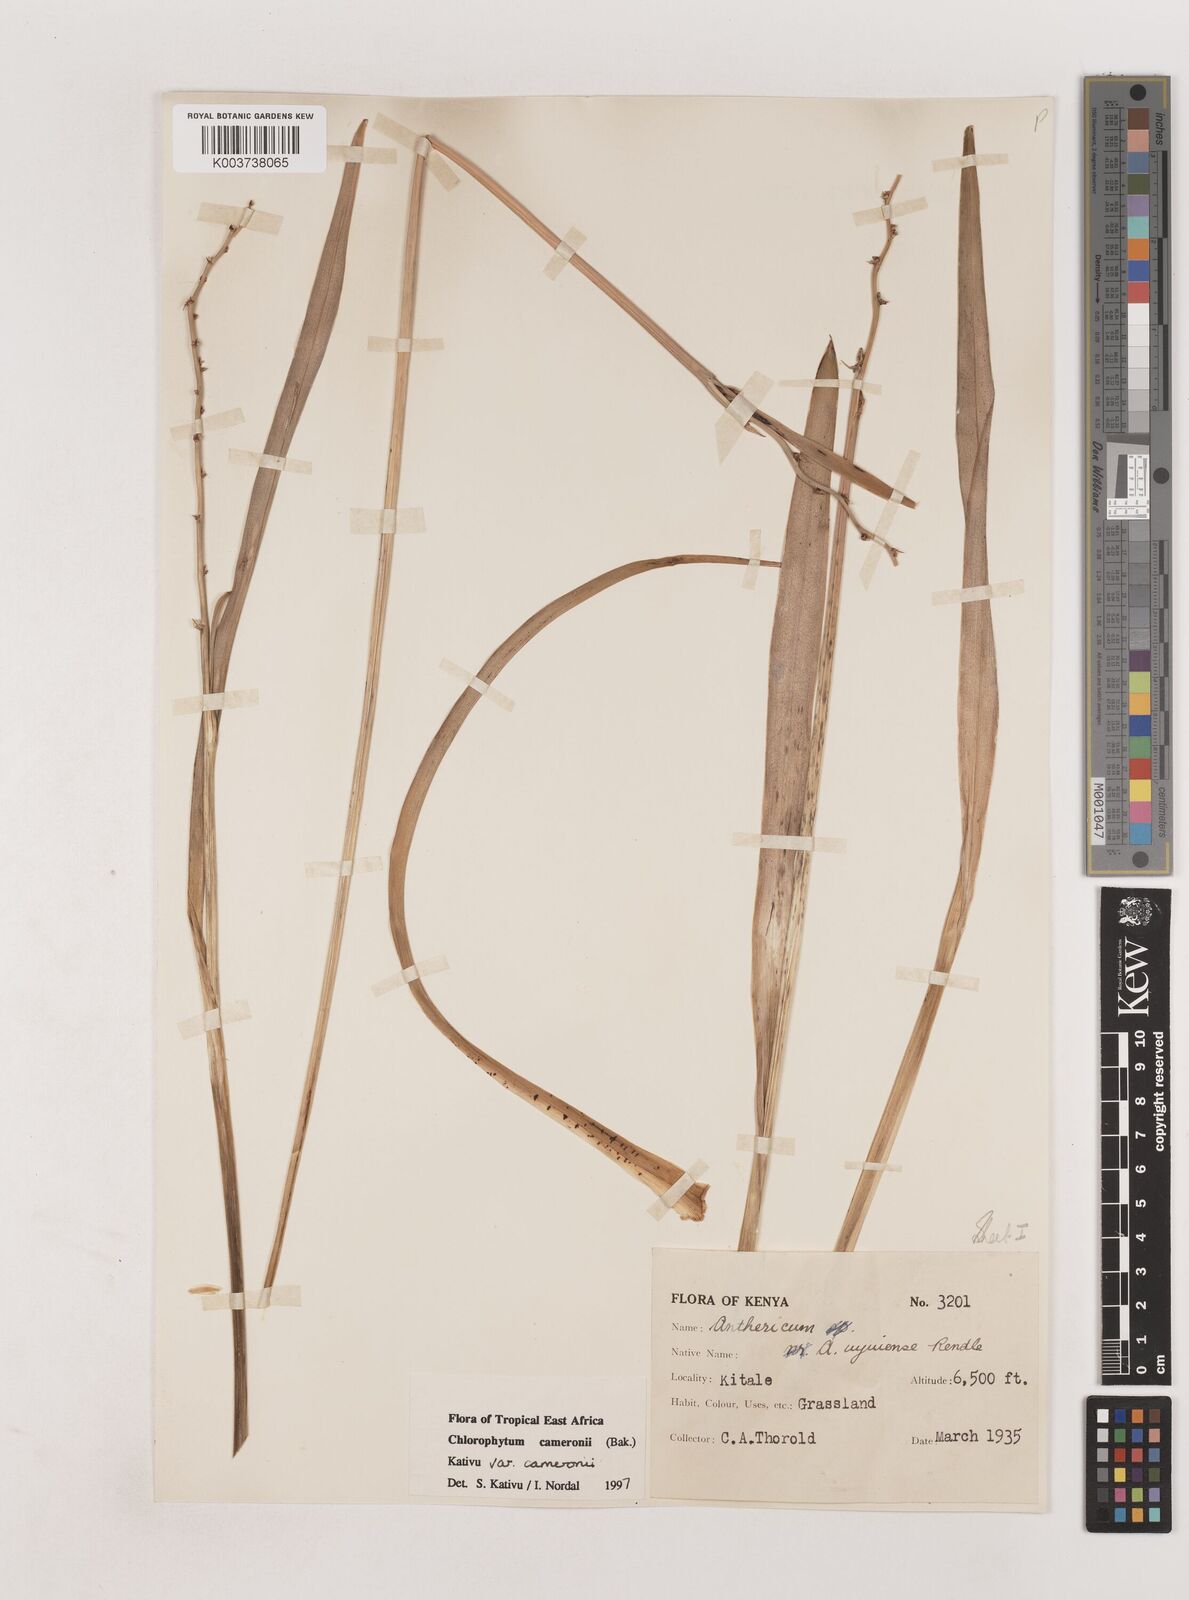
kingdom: Plantae
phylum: Tracheophyta
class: Liliopsida
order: Asparagales
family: Asparagaceae
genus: Chlorophytum
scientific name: Chlorophytum cameronii
